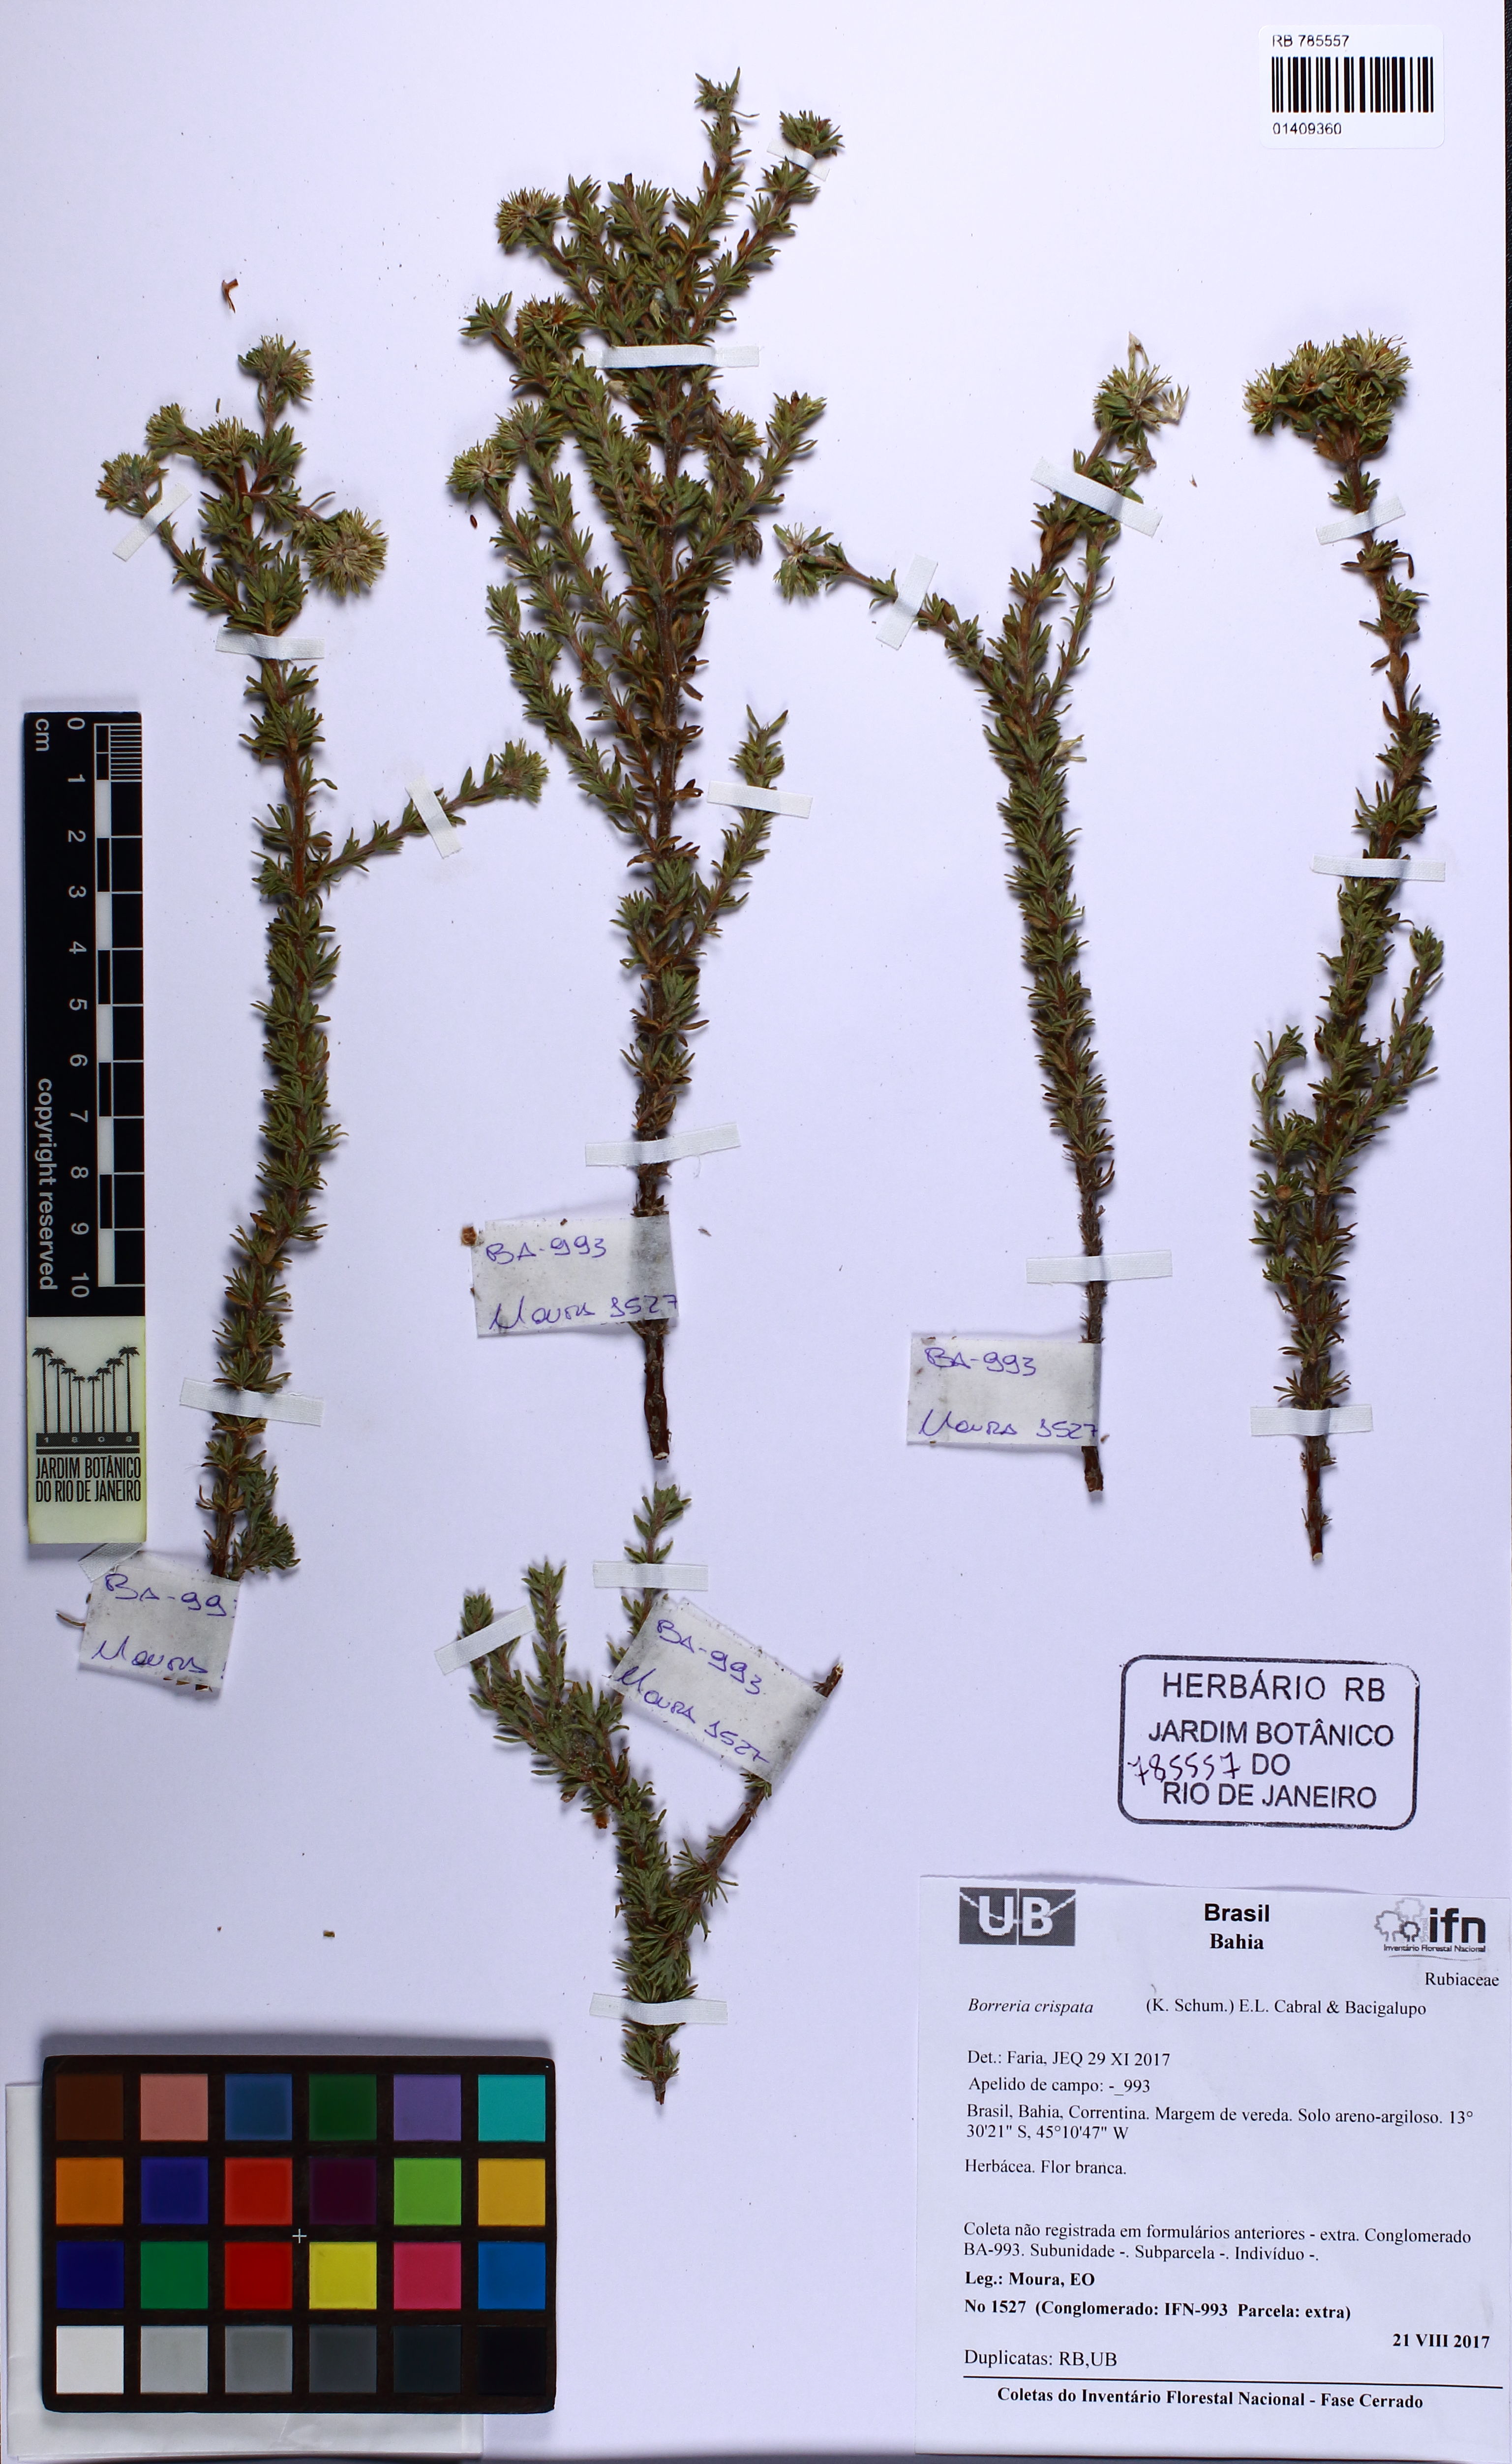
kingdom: Plantae
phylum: Tracheophyta
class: Magnoliopsida
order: Gentianales
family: Rubiaceae
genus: Spermacoce
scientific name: Spermacoce crispata
